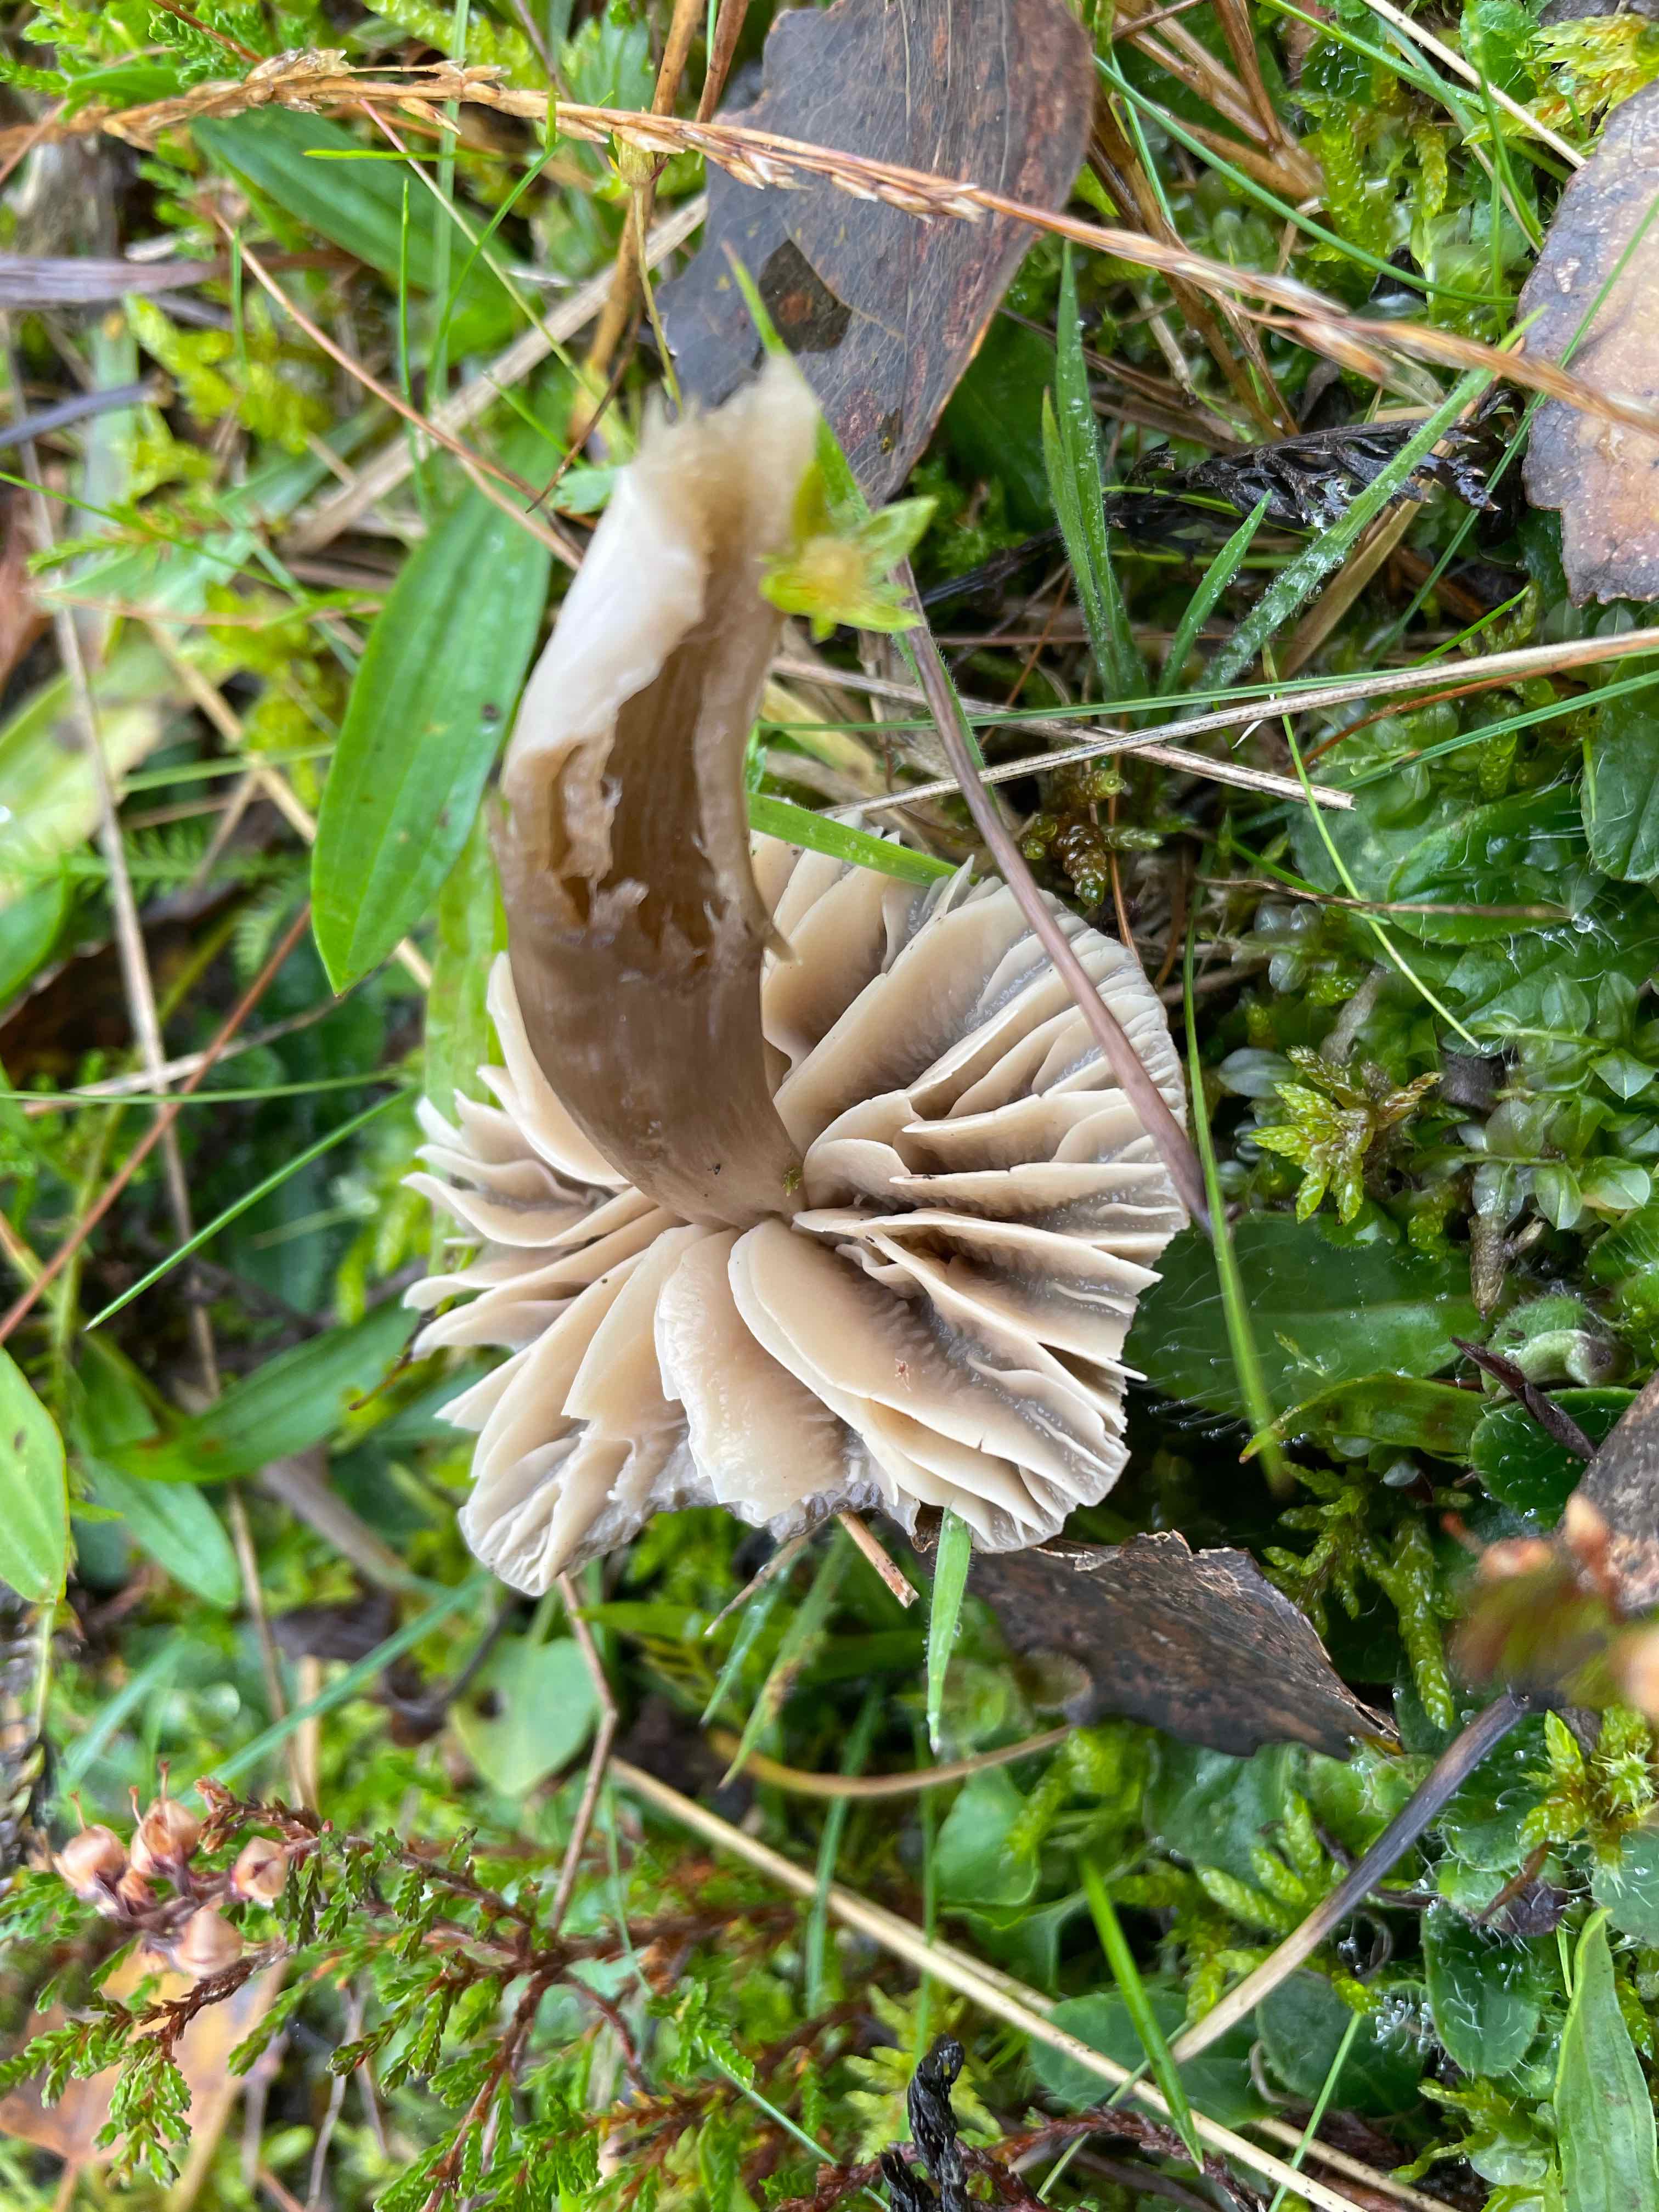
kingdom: Fungi
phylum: Basidiomycota
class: Agaricomycetes
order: Agaricales
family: Hygrophoraceae
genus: Neohygrocybe
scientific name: Neohygrocybe nitrata
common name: stinkende vokshat
